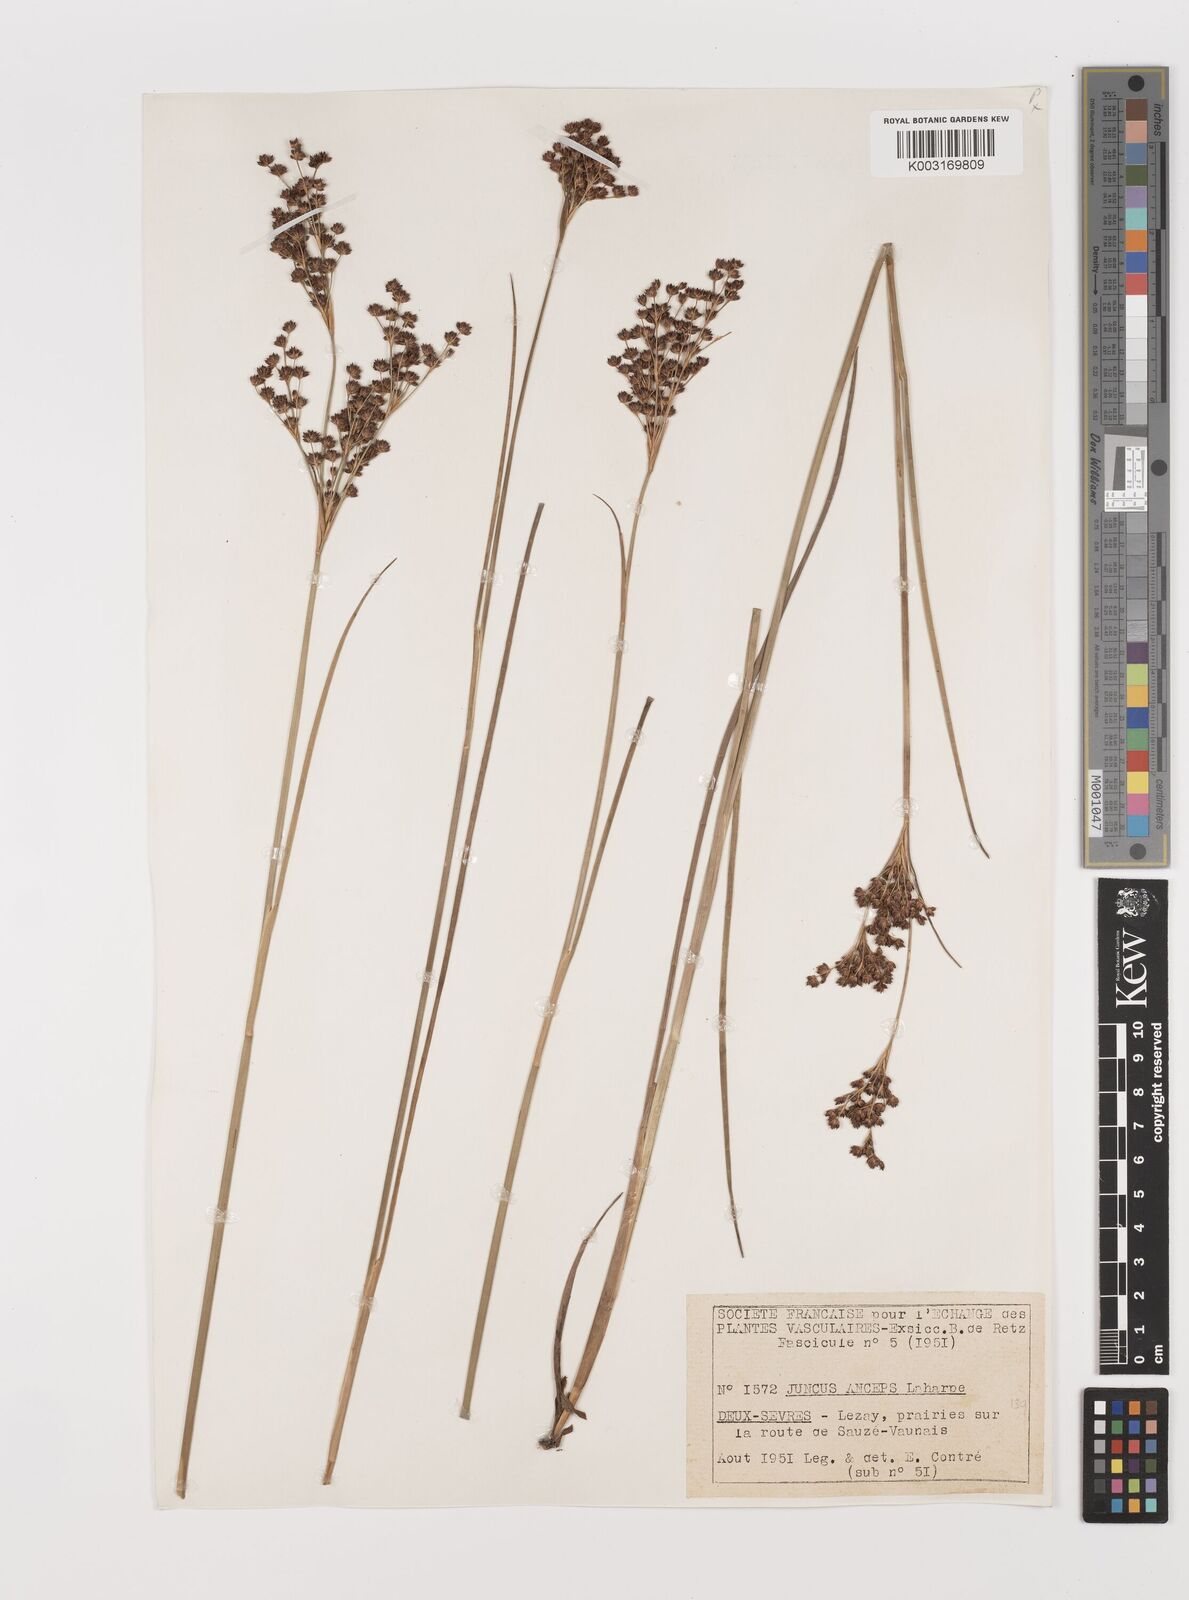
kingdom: Plantae
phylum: Tracheophyta
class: Liliopsida
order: Poales
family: Juncaceae
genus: Juncus
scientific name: Juncus anceps
